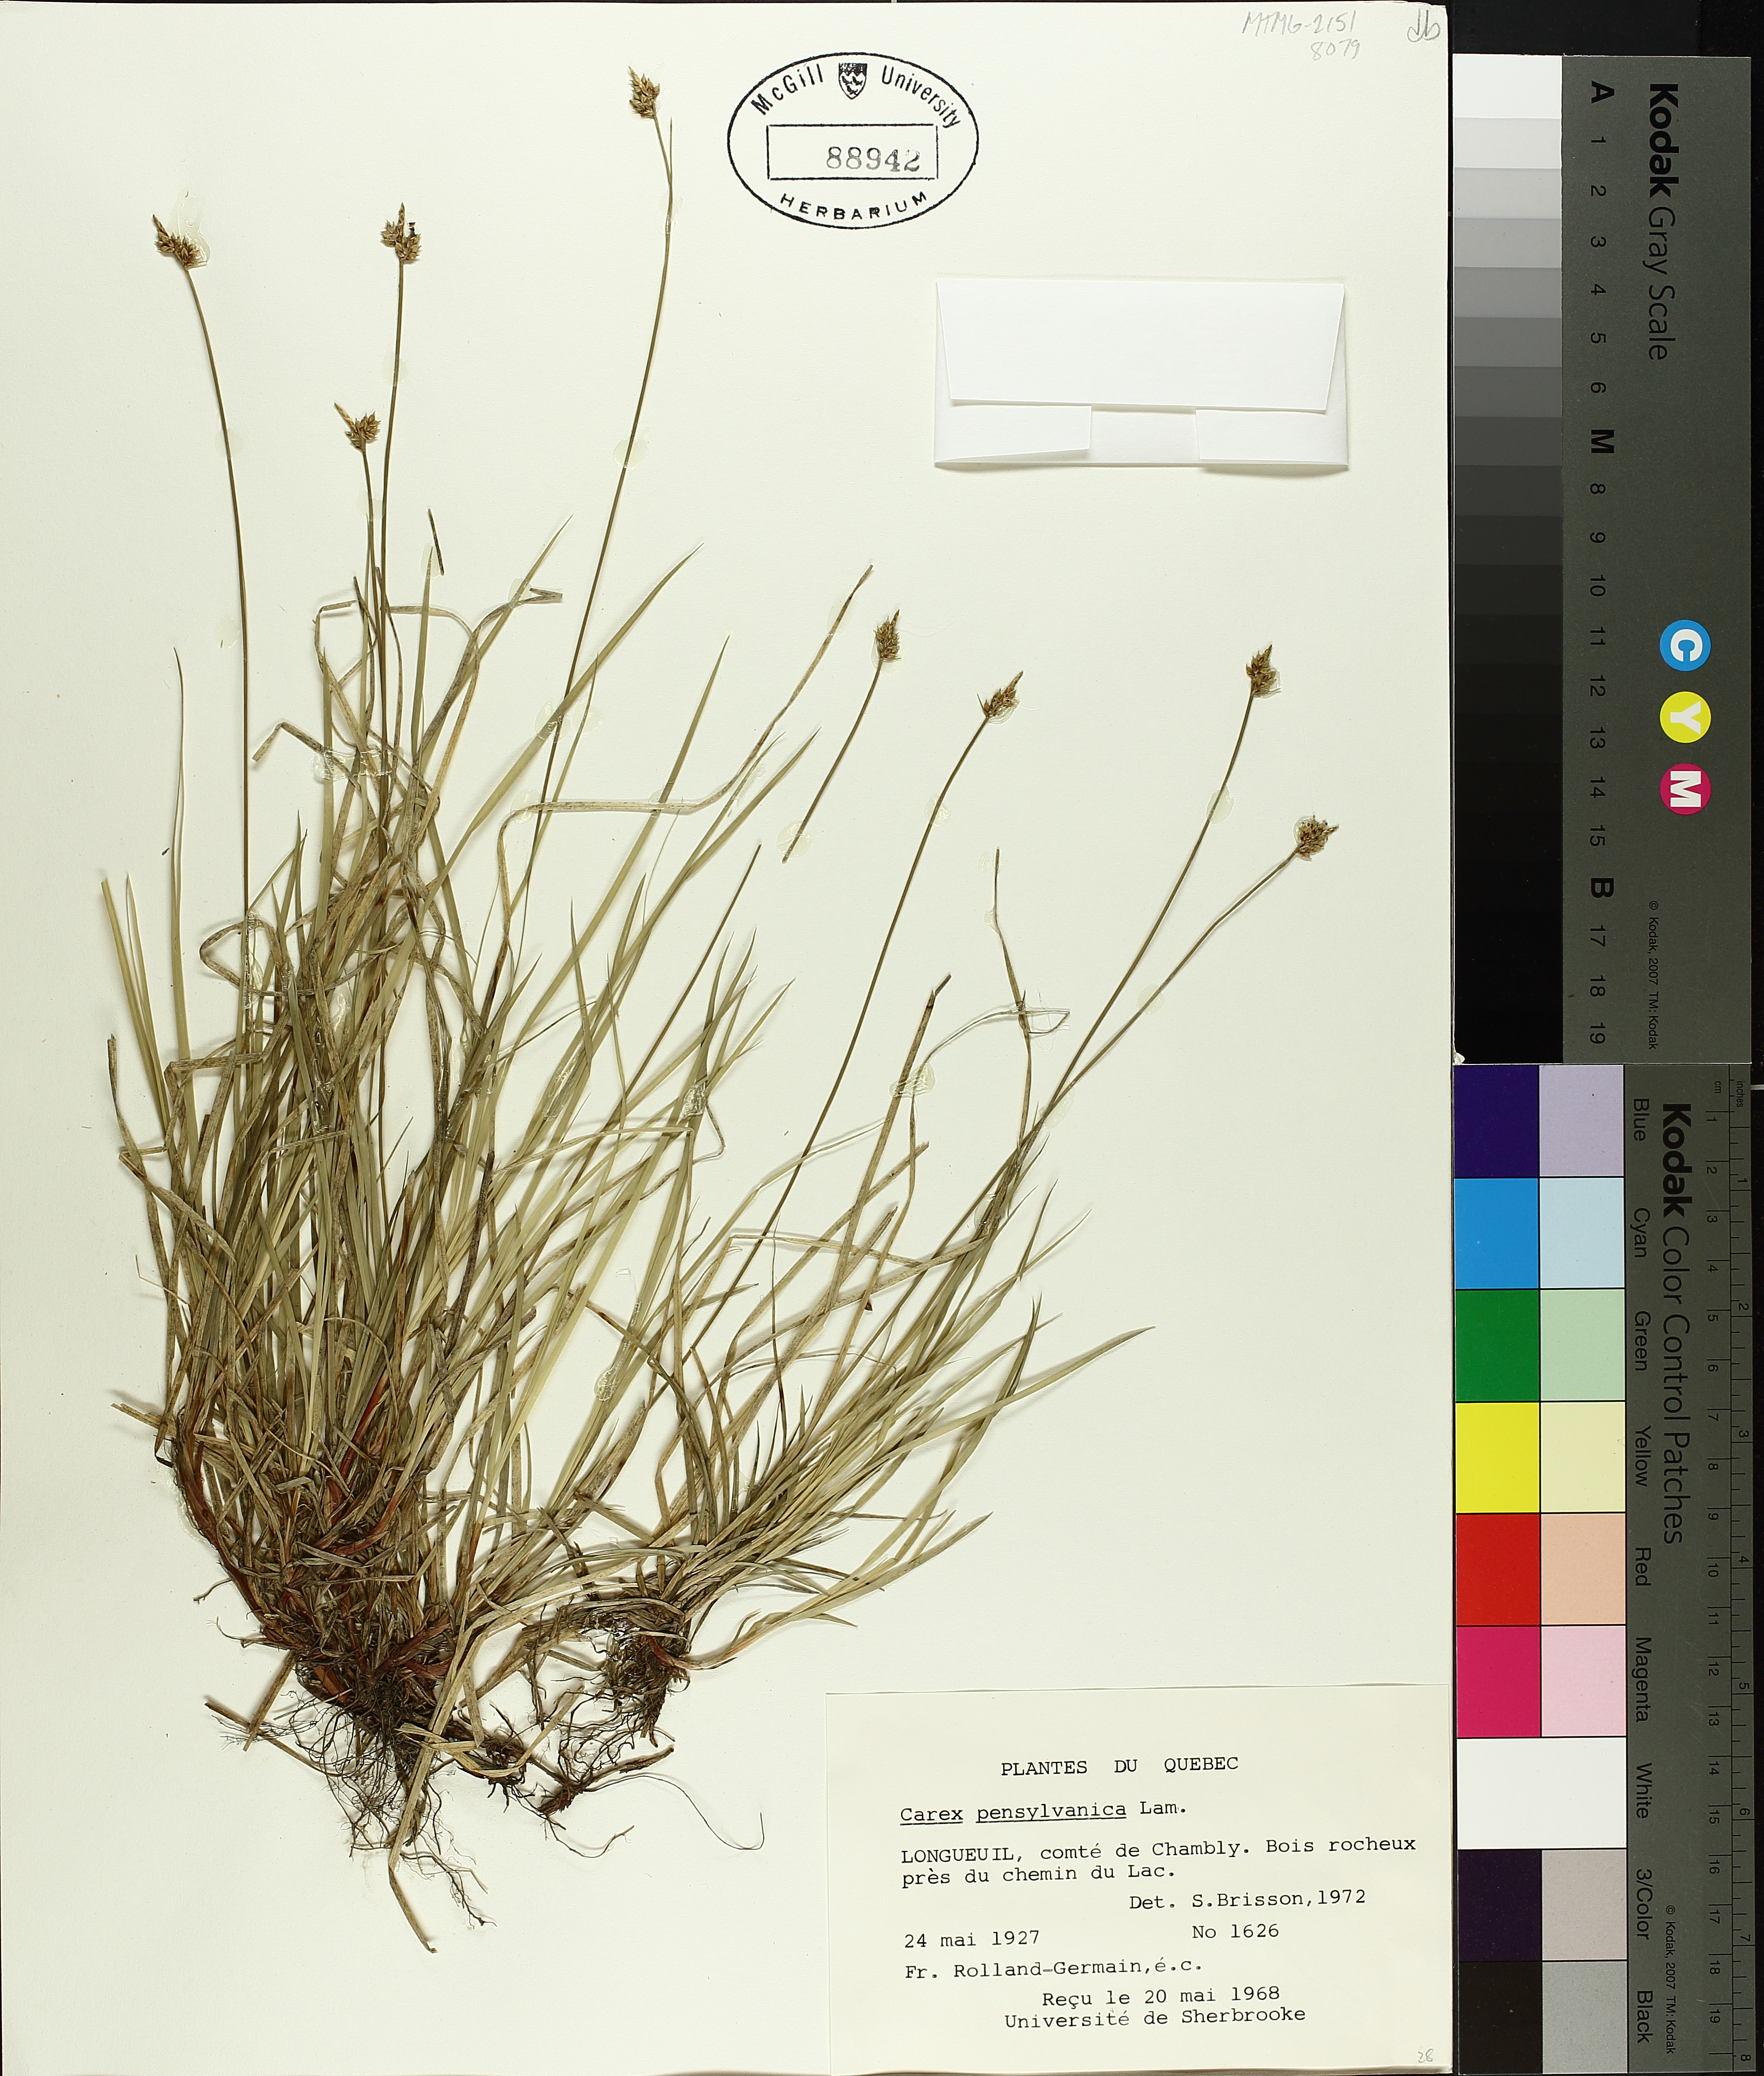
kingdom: Plantae
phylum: Tracheophyta
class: Liliopsida
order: Poales
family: Cyperaceae
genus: Carex
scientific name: Carex pensylvanica
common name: Common oak sedge
